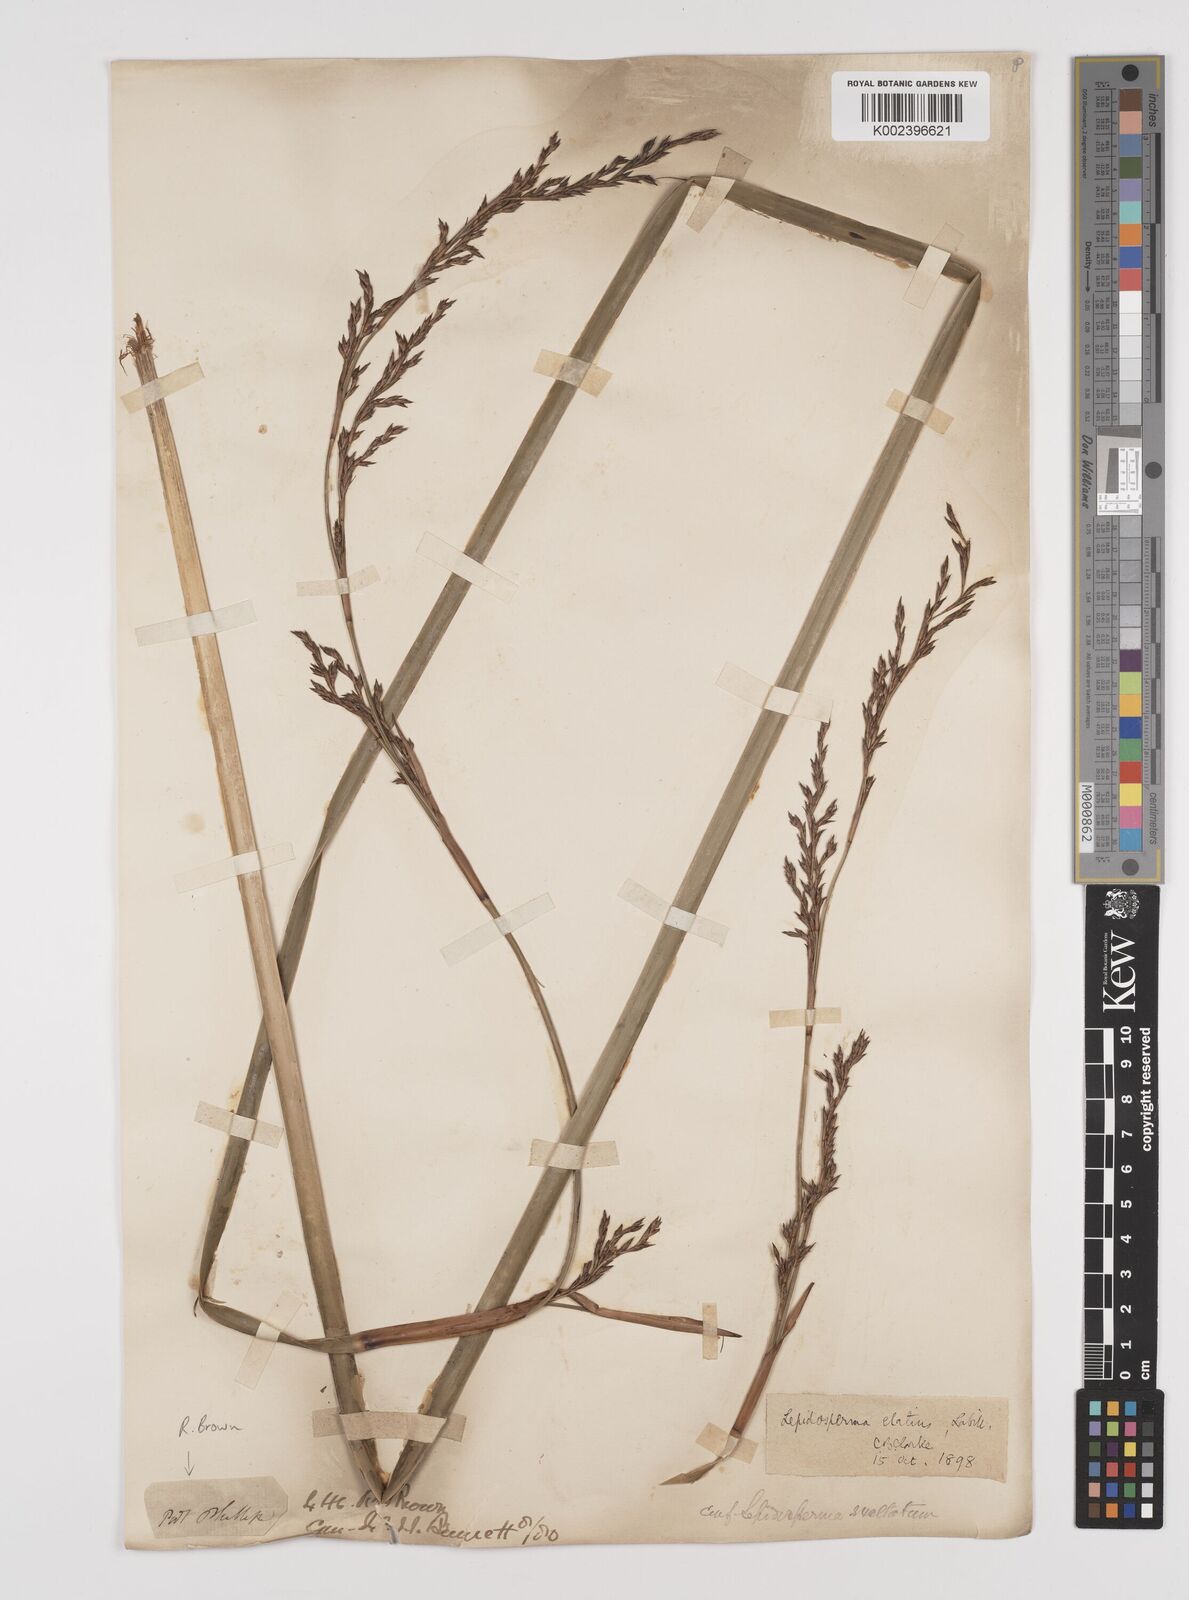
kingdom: Plantae
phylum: Tracheophyta
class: Liliopsida
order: Poales
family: Cyperaceae
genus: Lepidosperma
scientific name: Lepidosperma elatius
